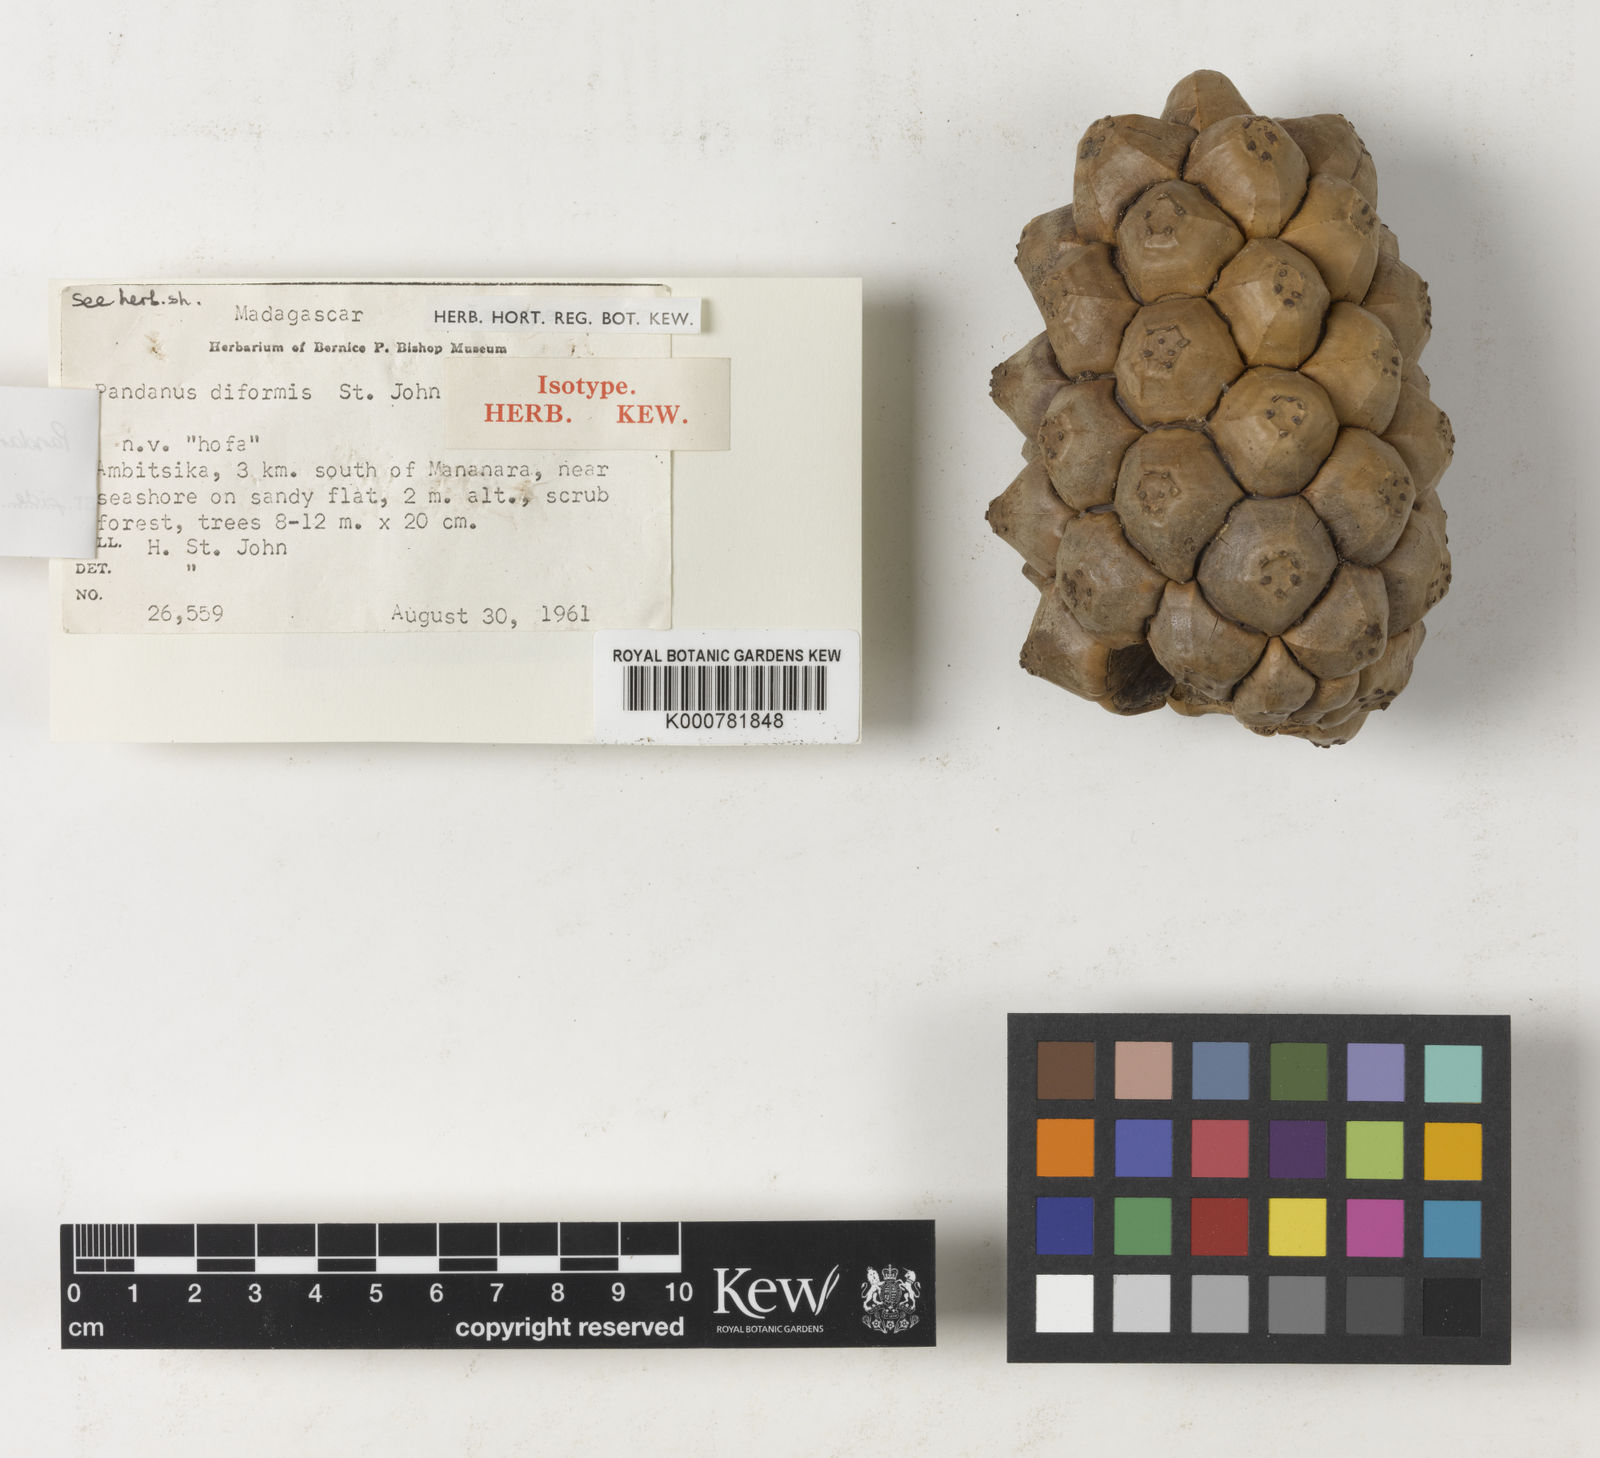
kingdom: Plantae
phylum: Tracheophyta
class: Liliopsida
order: Pandanales
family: Pandanaceae
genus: Pandanus
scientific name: Pandanus concretus
